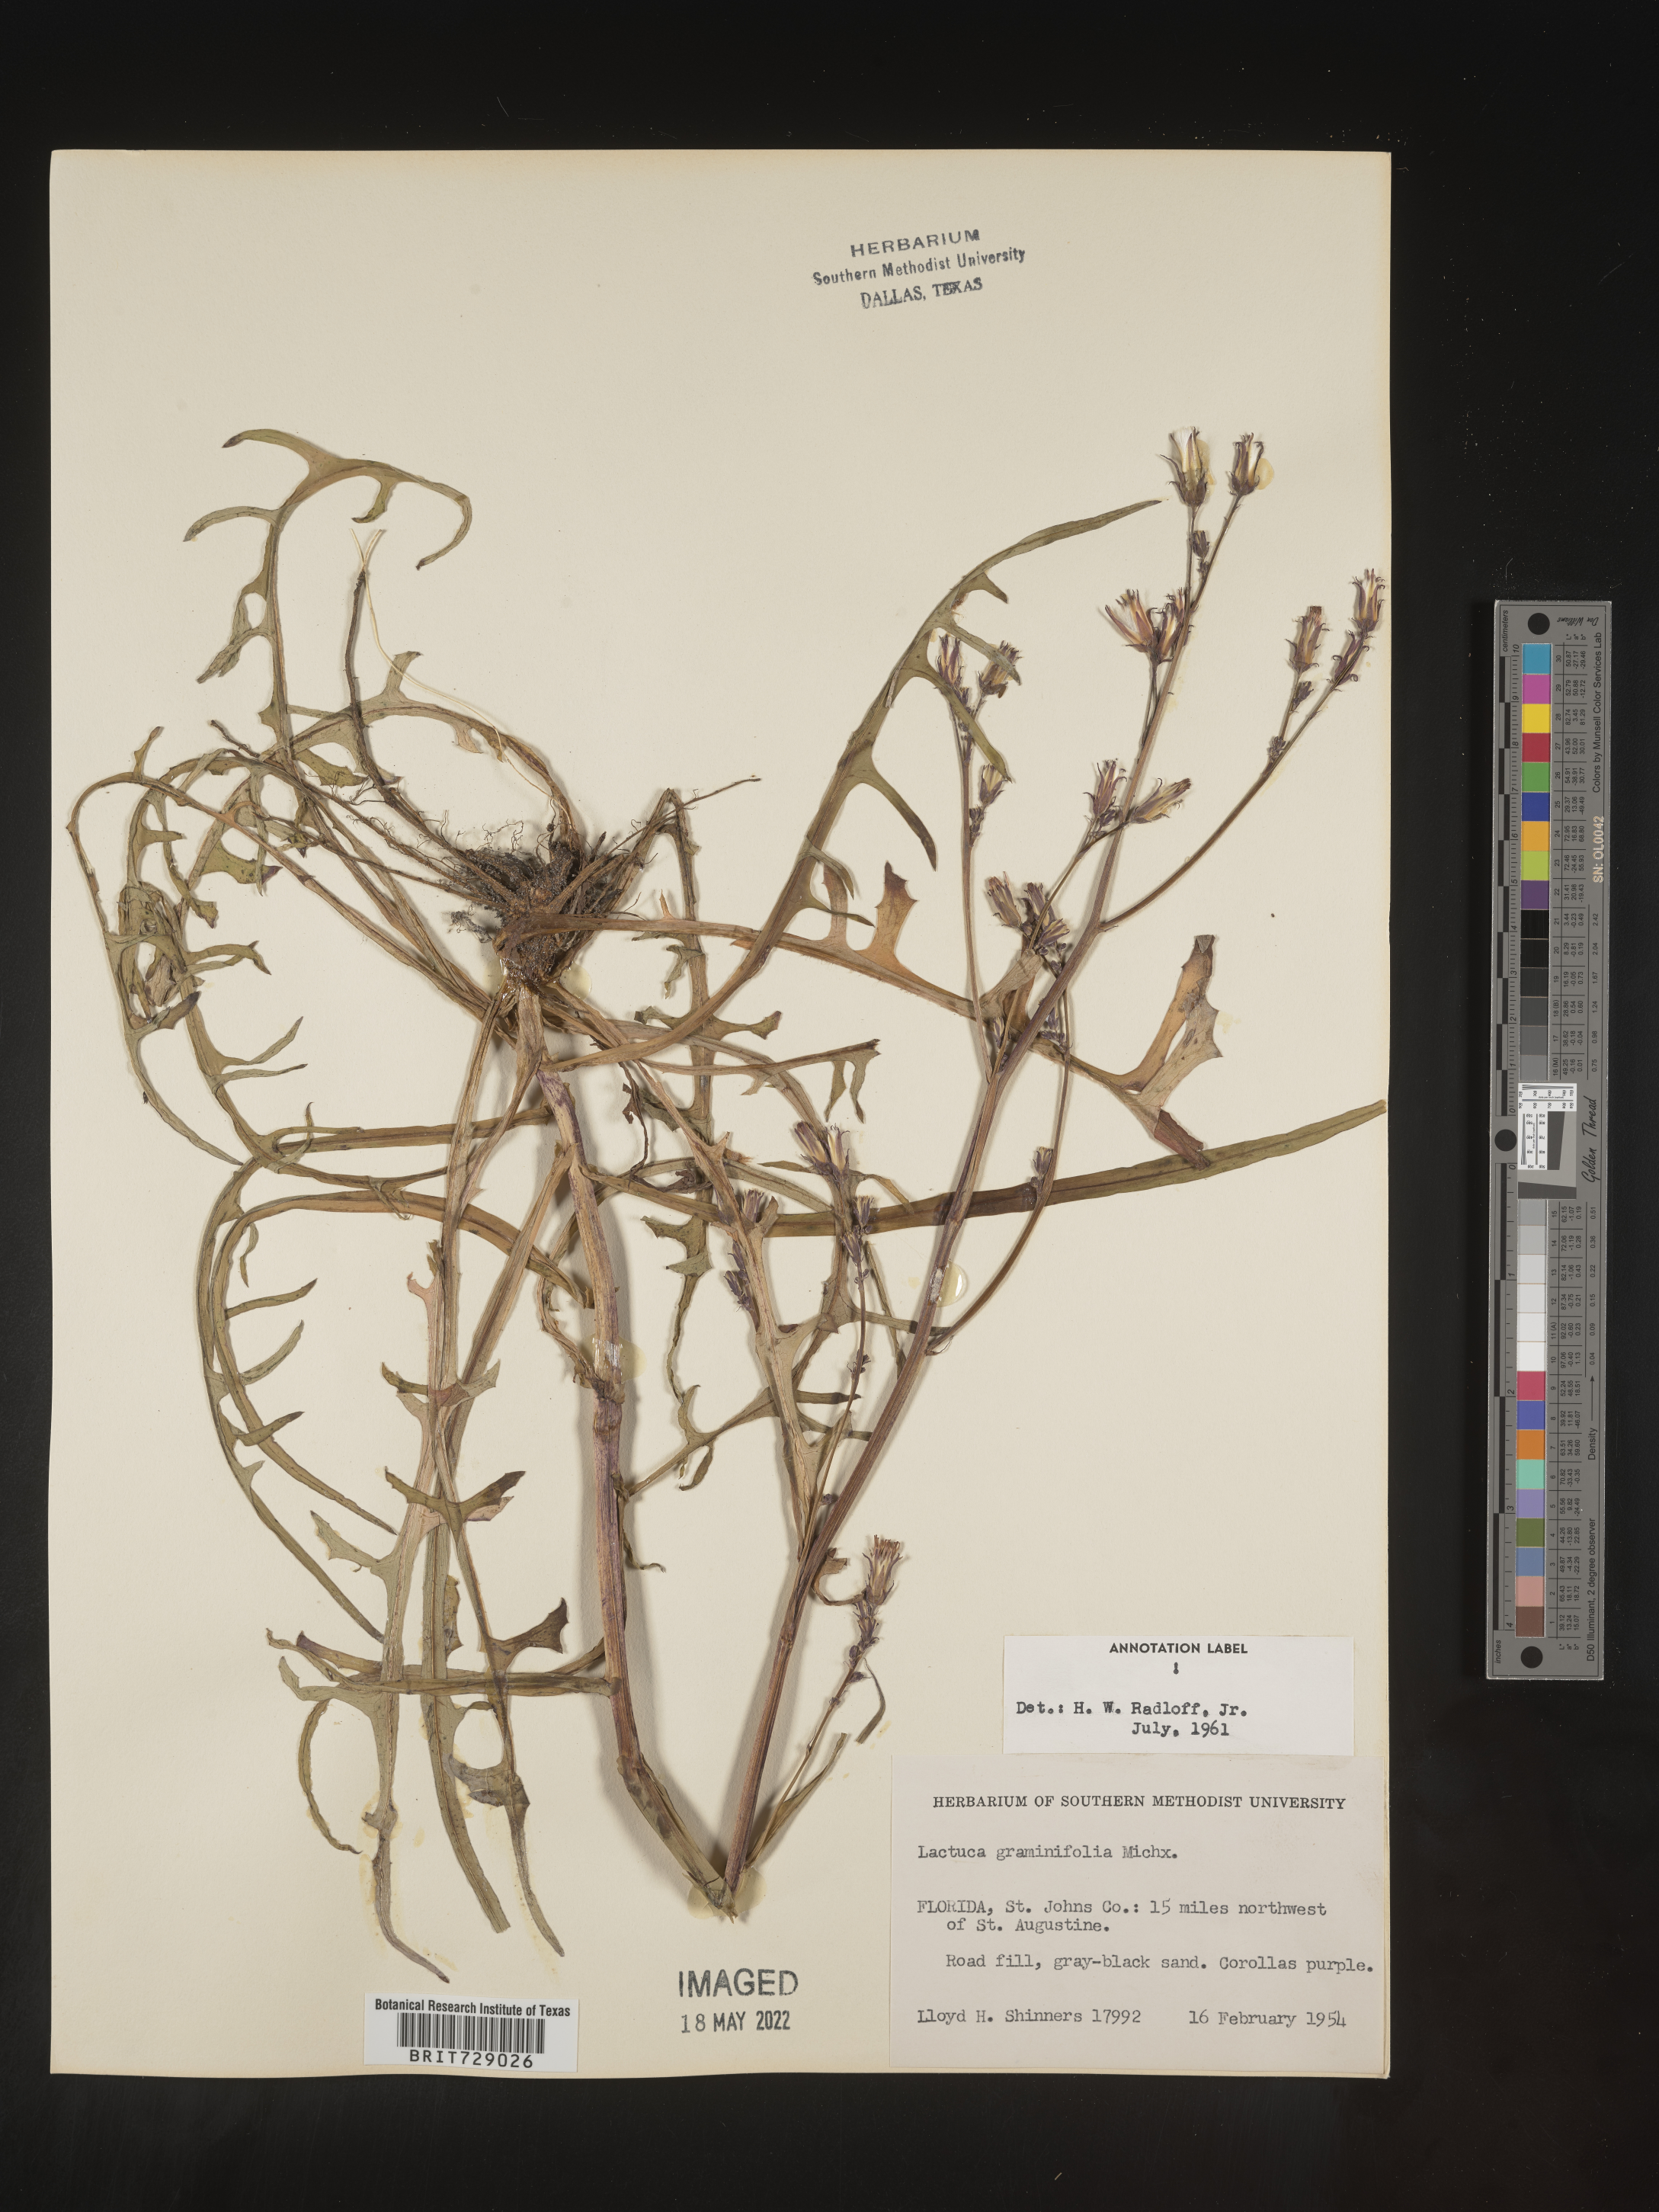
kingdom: Plantae
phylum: Tracheophyta
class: Magnoliopsida
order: Asterales
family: Asteraceae
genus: Lactuca
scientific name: Lactuca graminifolia
